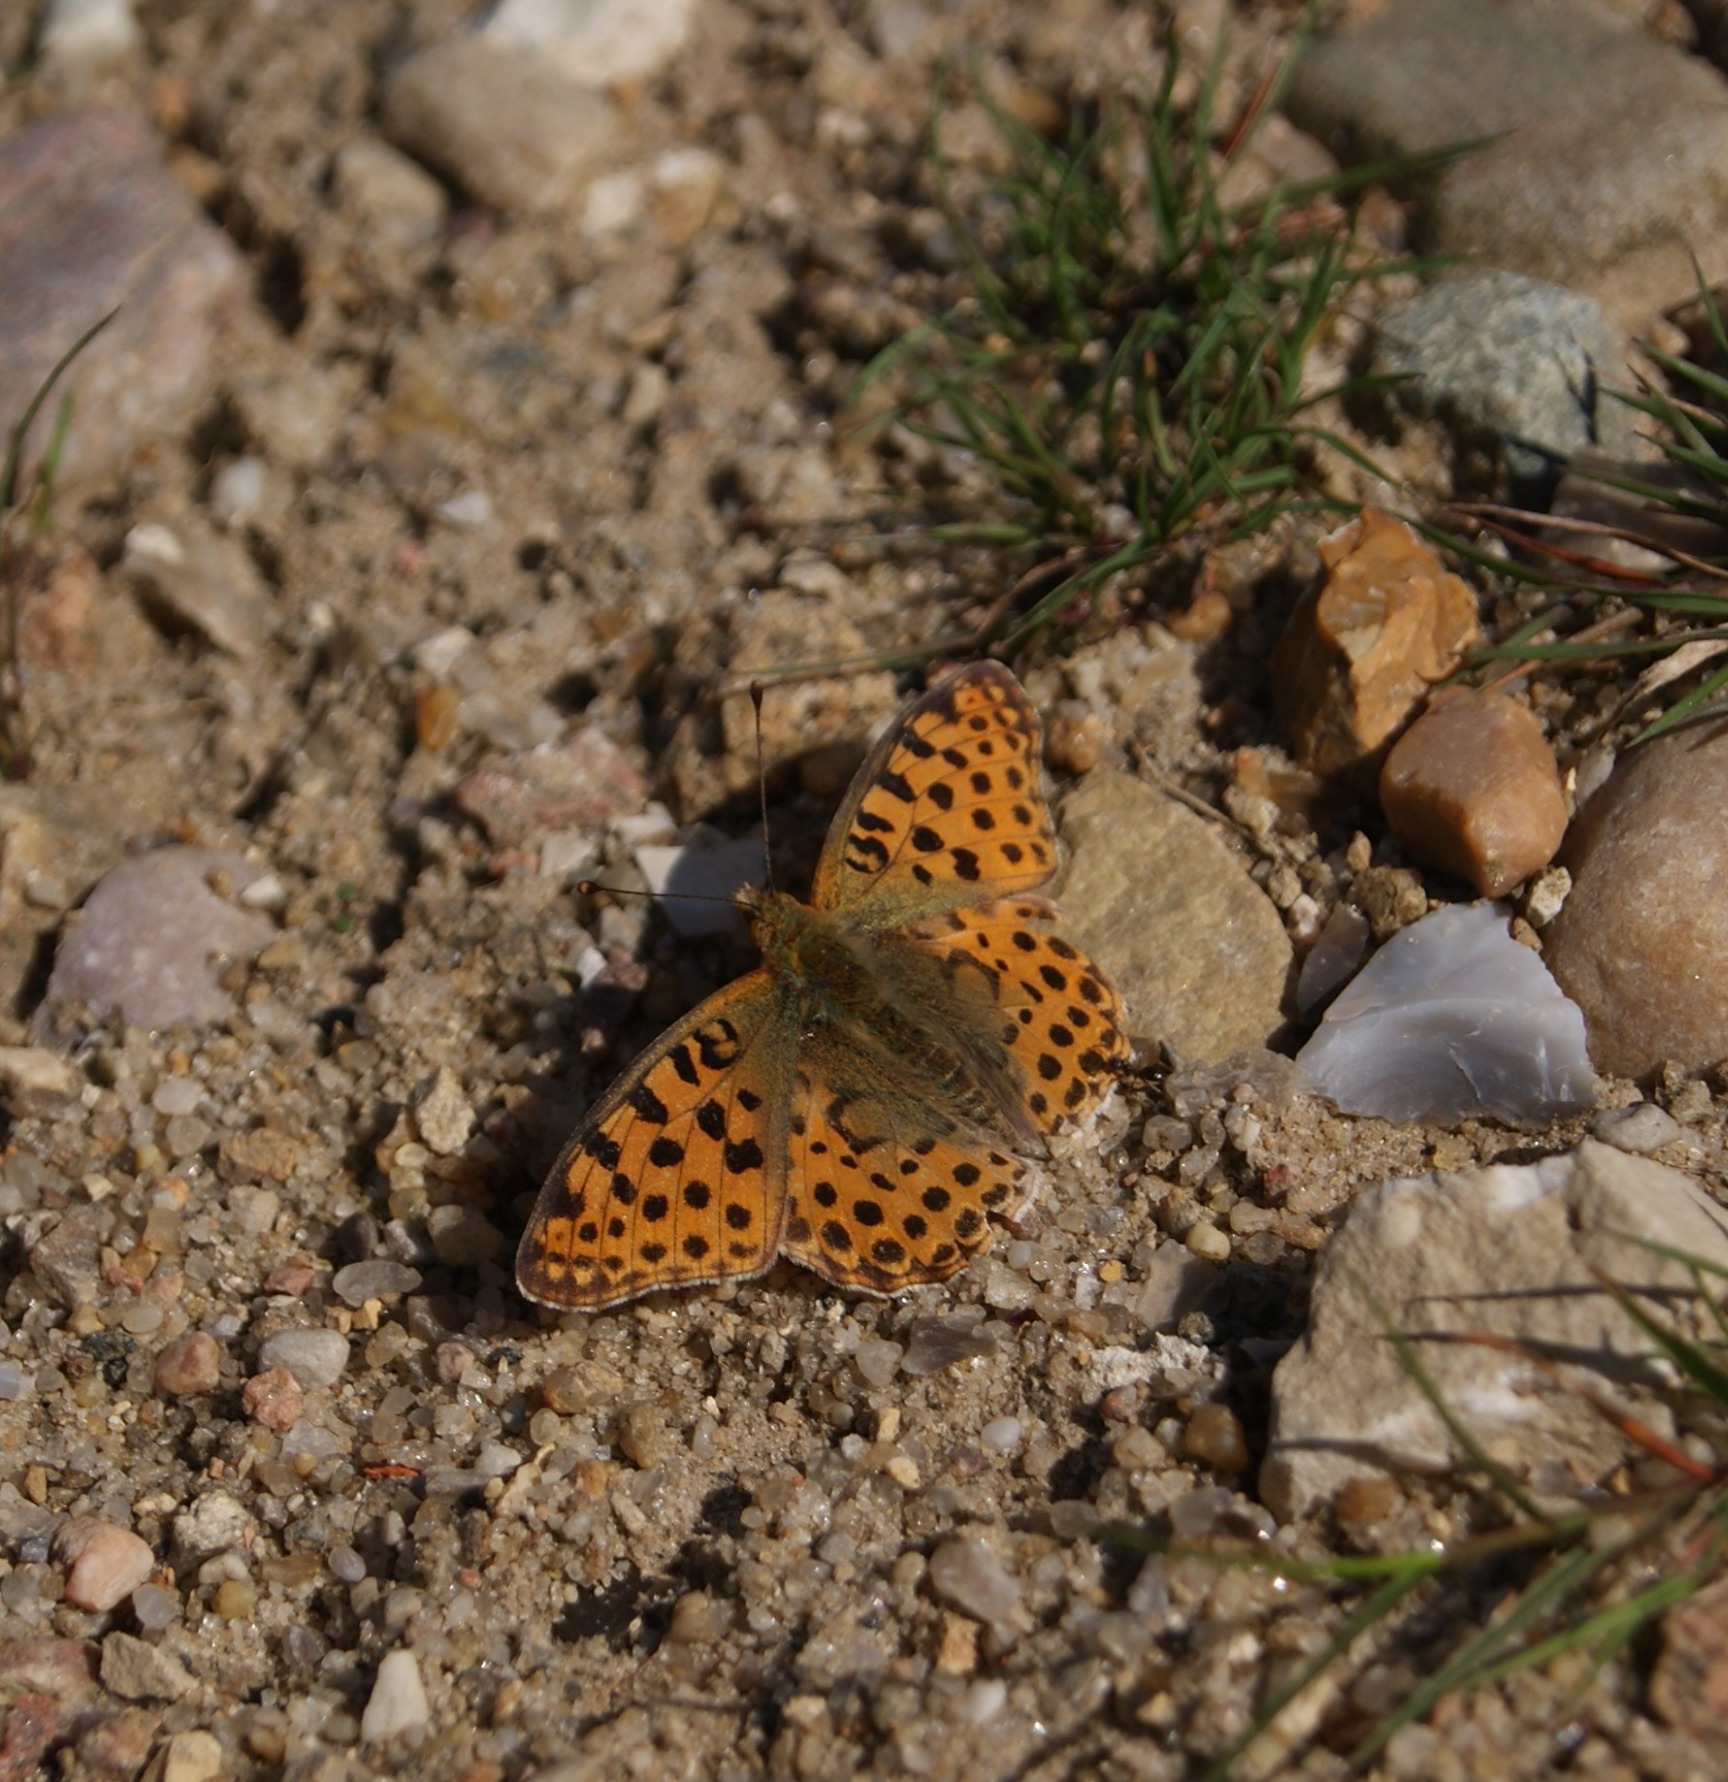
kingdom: Animalia
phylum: Arthropoda
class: Insecta
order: Lepidoptera
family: Nymphalidae
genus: Issoria
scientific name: Issoria lathonia
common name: Storplettet perlemorsommerfugl
